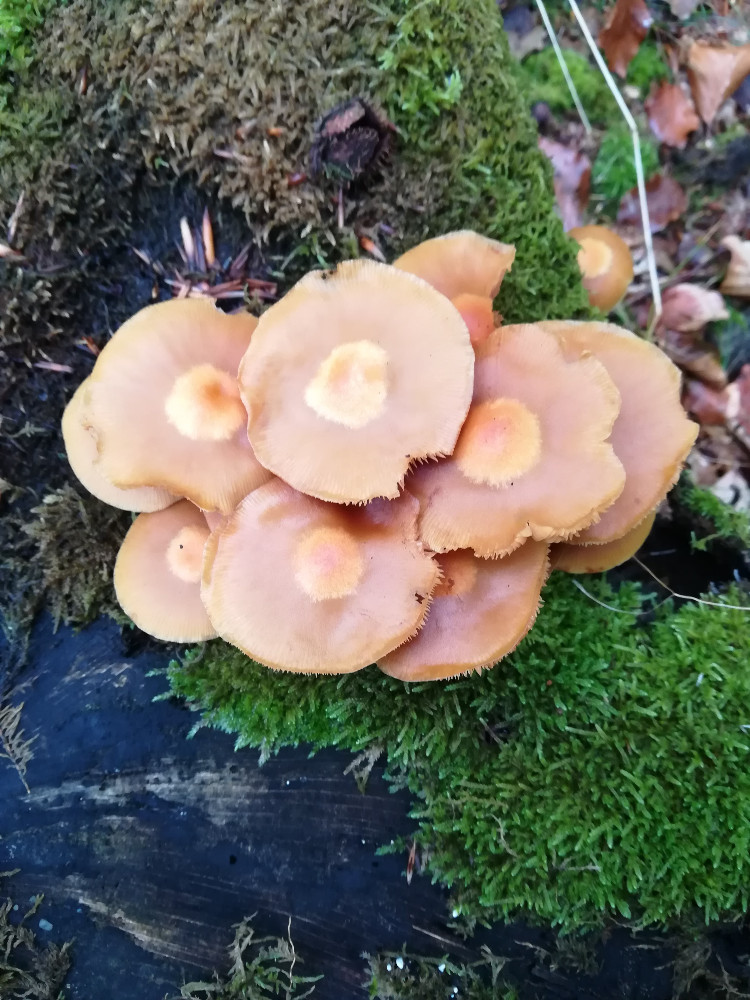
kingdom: Fungi
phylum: Basidiomycota
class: Agaricomycetes
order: Agaricales
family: Strophariaceae
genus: Kuehneromyces
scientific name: Kuehneromyces mutabilis
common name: foranderlig skælhat
